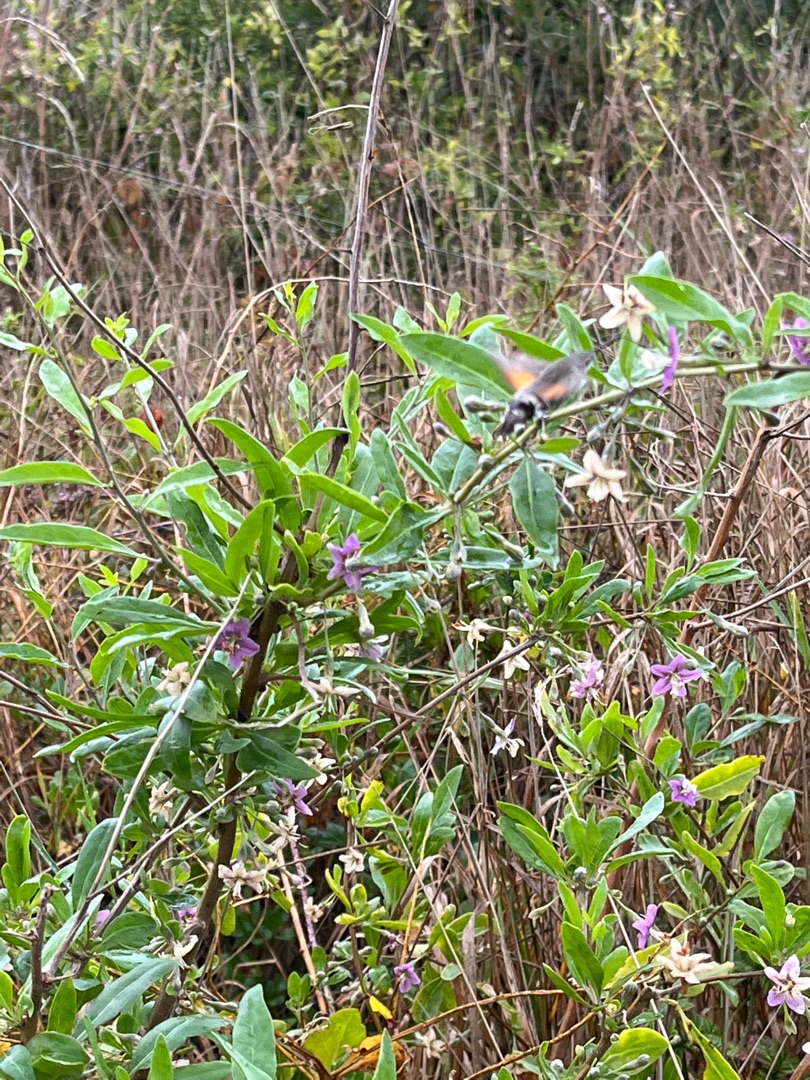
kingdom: Plantae
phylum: Tracheophyta
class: Magnoliopsida
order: Solanales
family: Solanaceae
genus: Lycium
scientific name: Lycium barbarum
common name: Bukketorn
